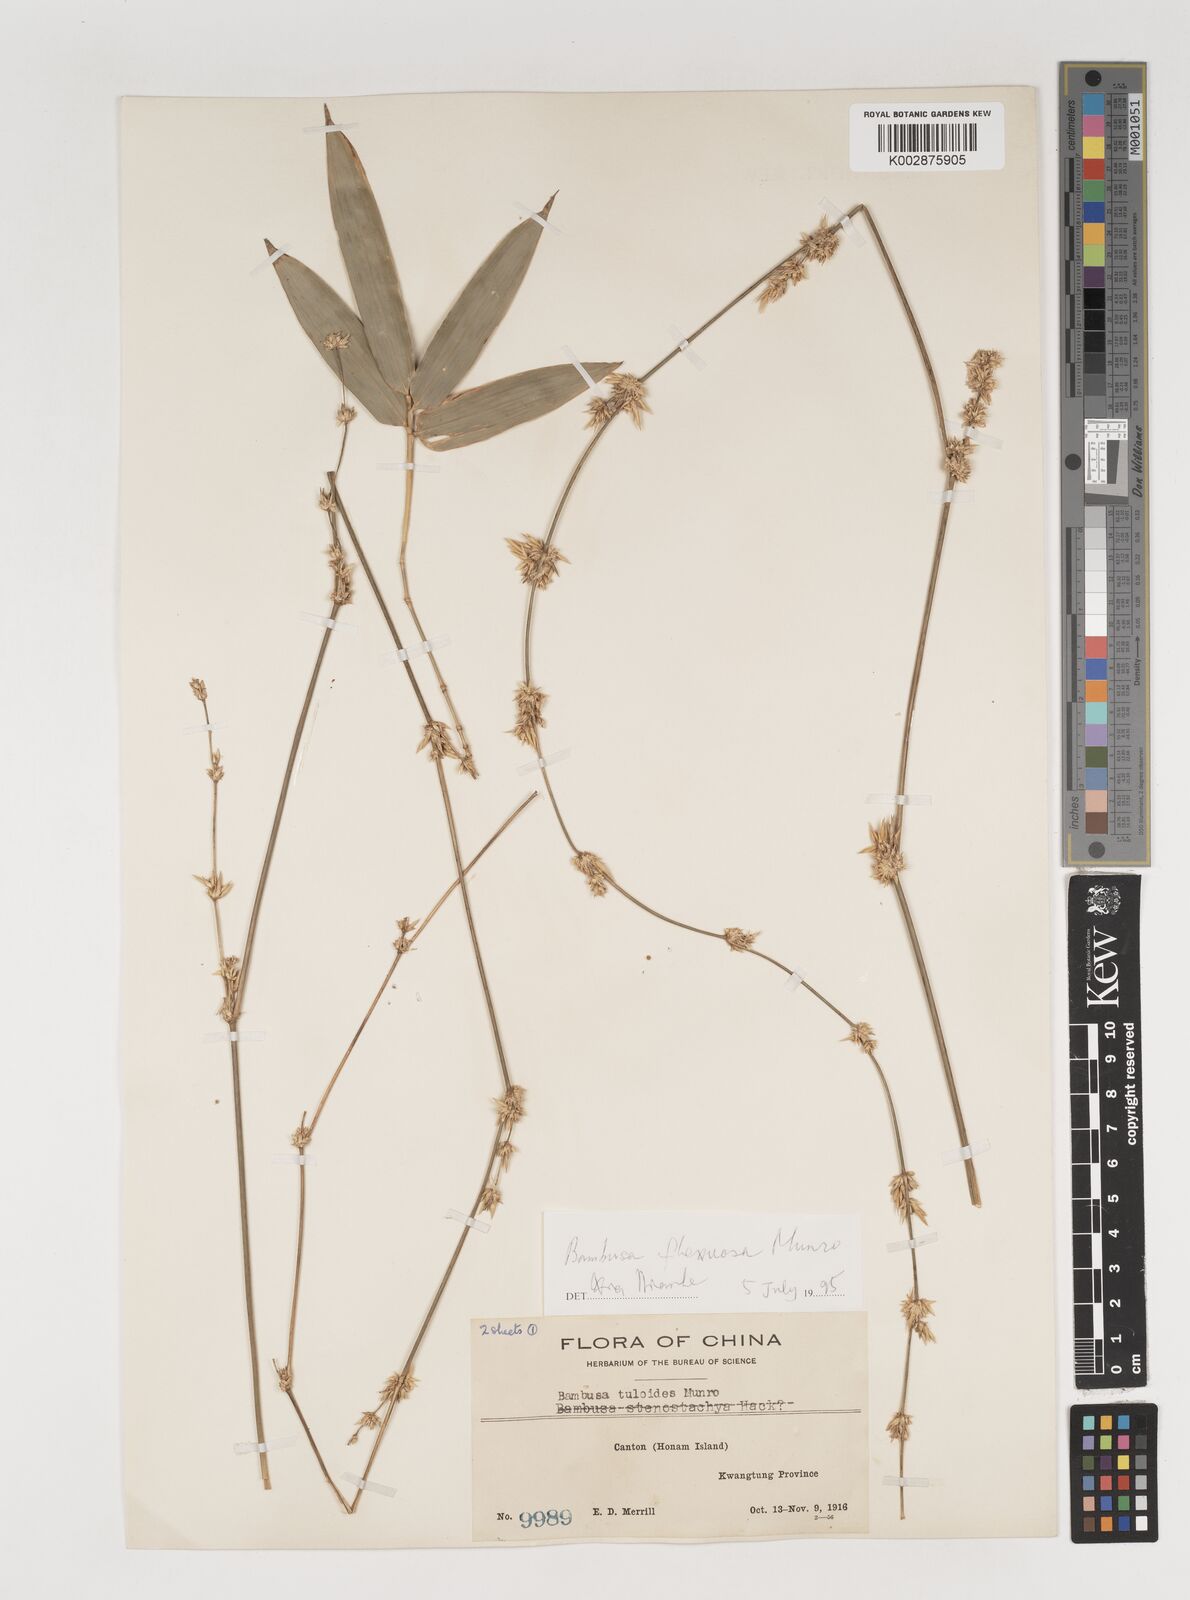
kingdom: Plantae
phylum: Tracheophyta
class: Liliopsida
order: Poales
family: Poaceae
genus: Bambusa
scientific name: Bambusa flexuosa
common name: Lesser thorny bamboo
